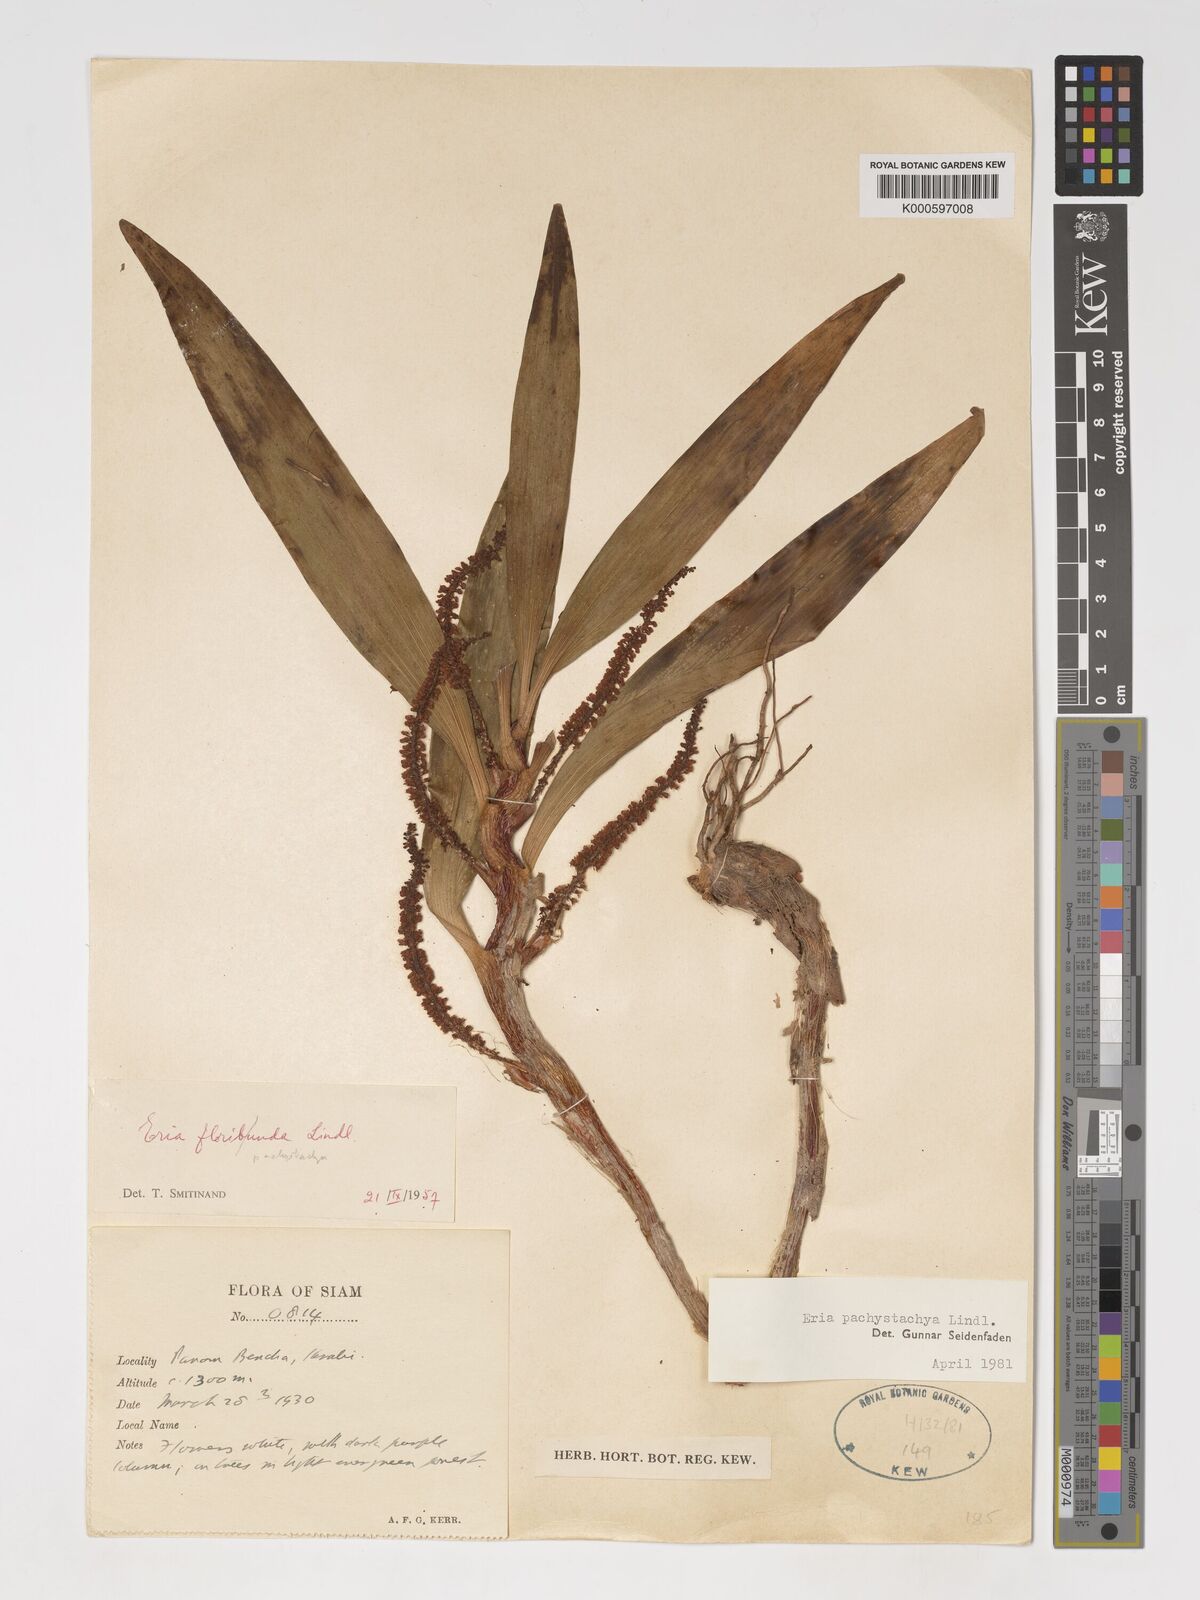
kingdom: Plantae
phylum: Tracheophyta
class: Liliopsida
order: Asparagales
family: Orchidaceae
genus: Pinalia
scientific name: Pinalia pachystachya
